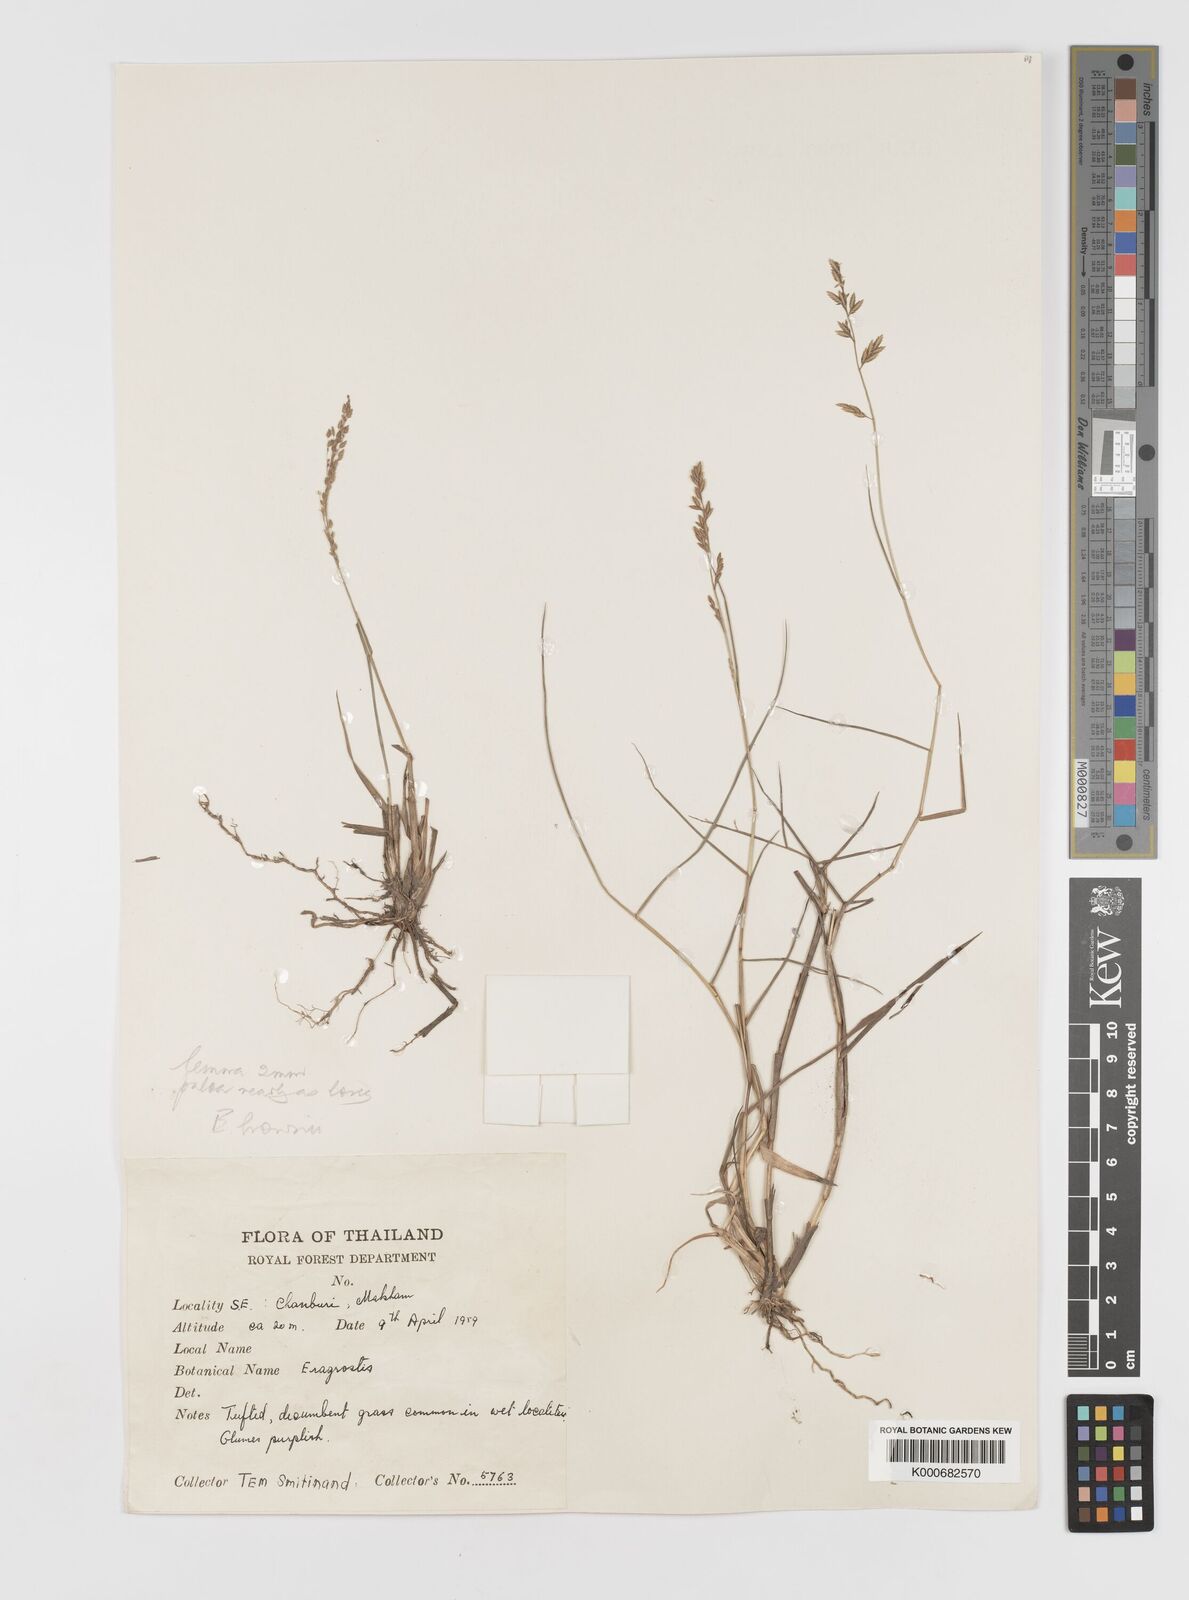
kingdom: Plantae
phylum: Tracheophyta
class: Liliopsida
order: Poales
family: Poaceae
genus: Eragrostis
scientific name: Eragrostis
